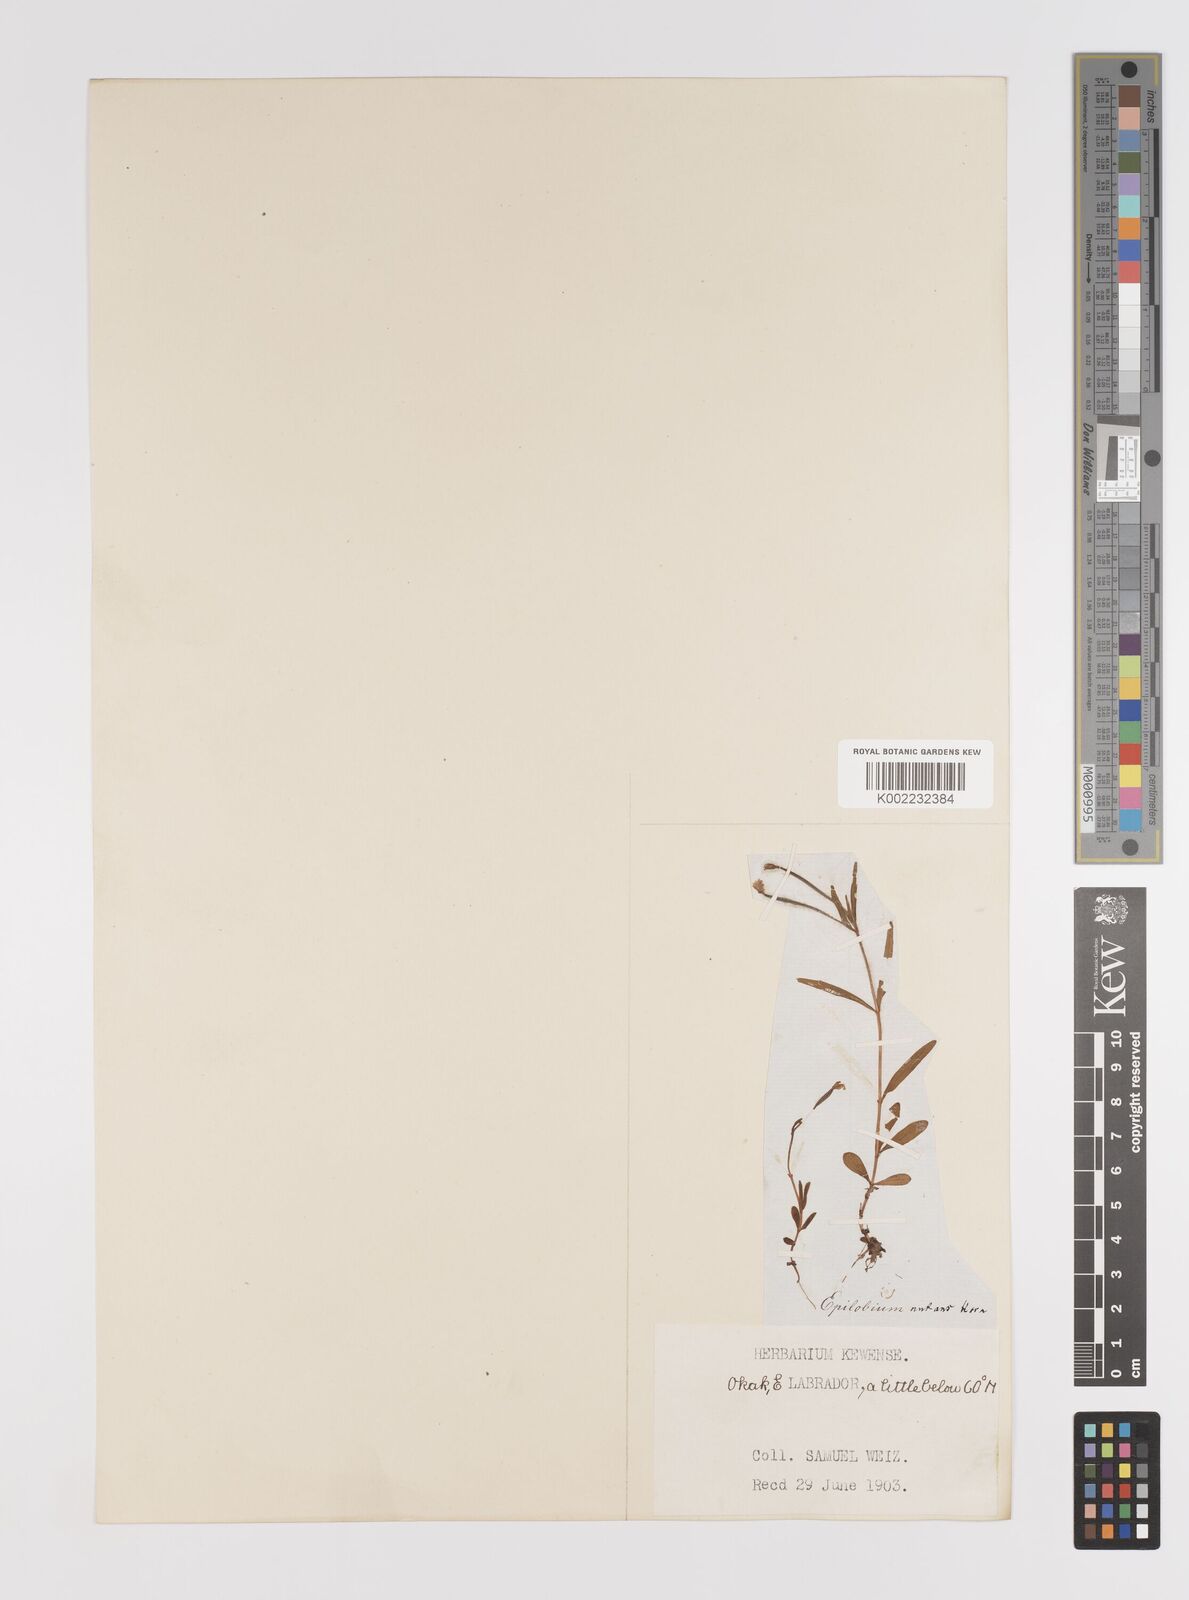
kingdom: Plantae
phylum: Tracheophyta
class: Magnoliopsida
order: Myrtales
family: Onagraceae
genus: Epilobium
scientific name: Epilobium palustre
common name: Marsh willowherb
